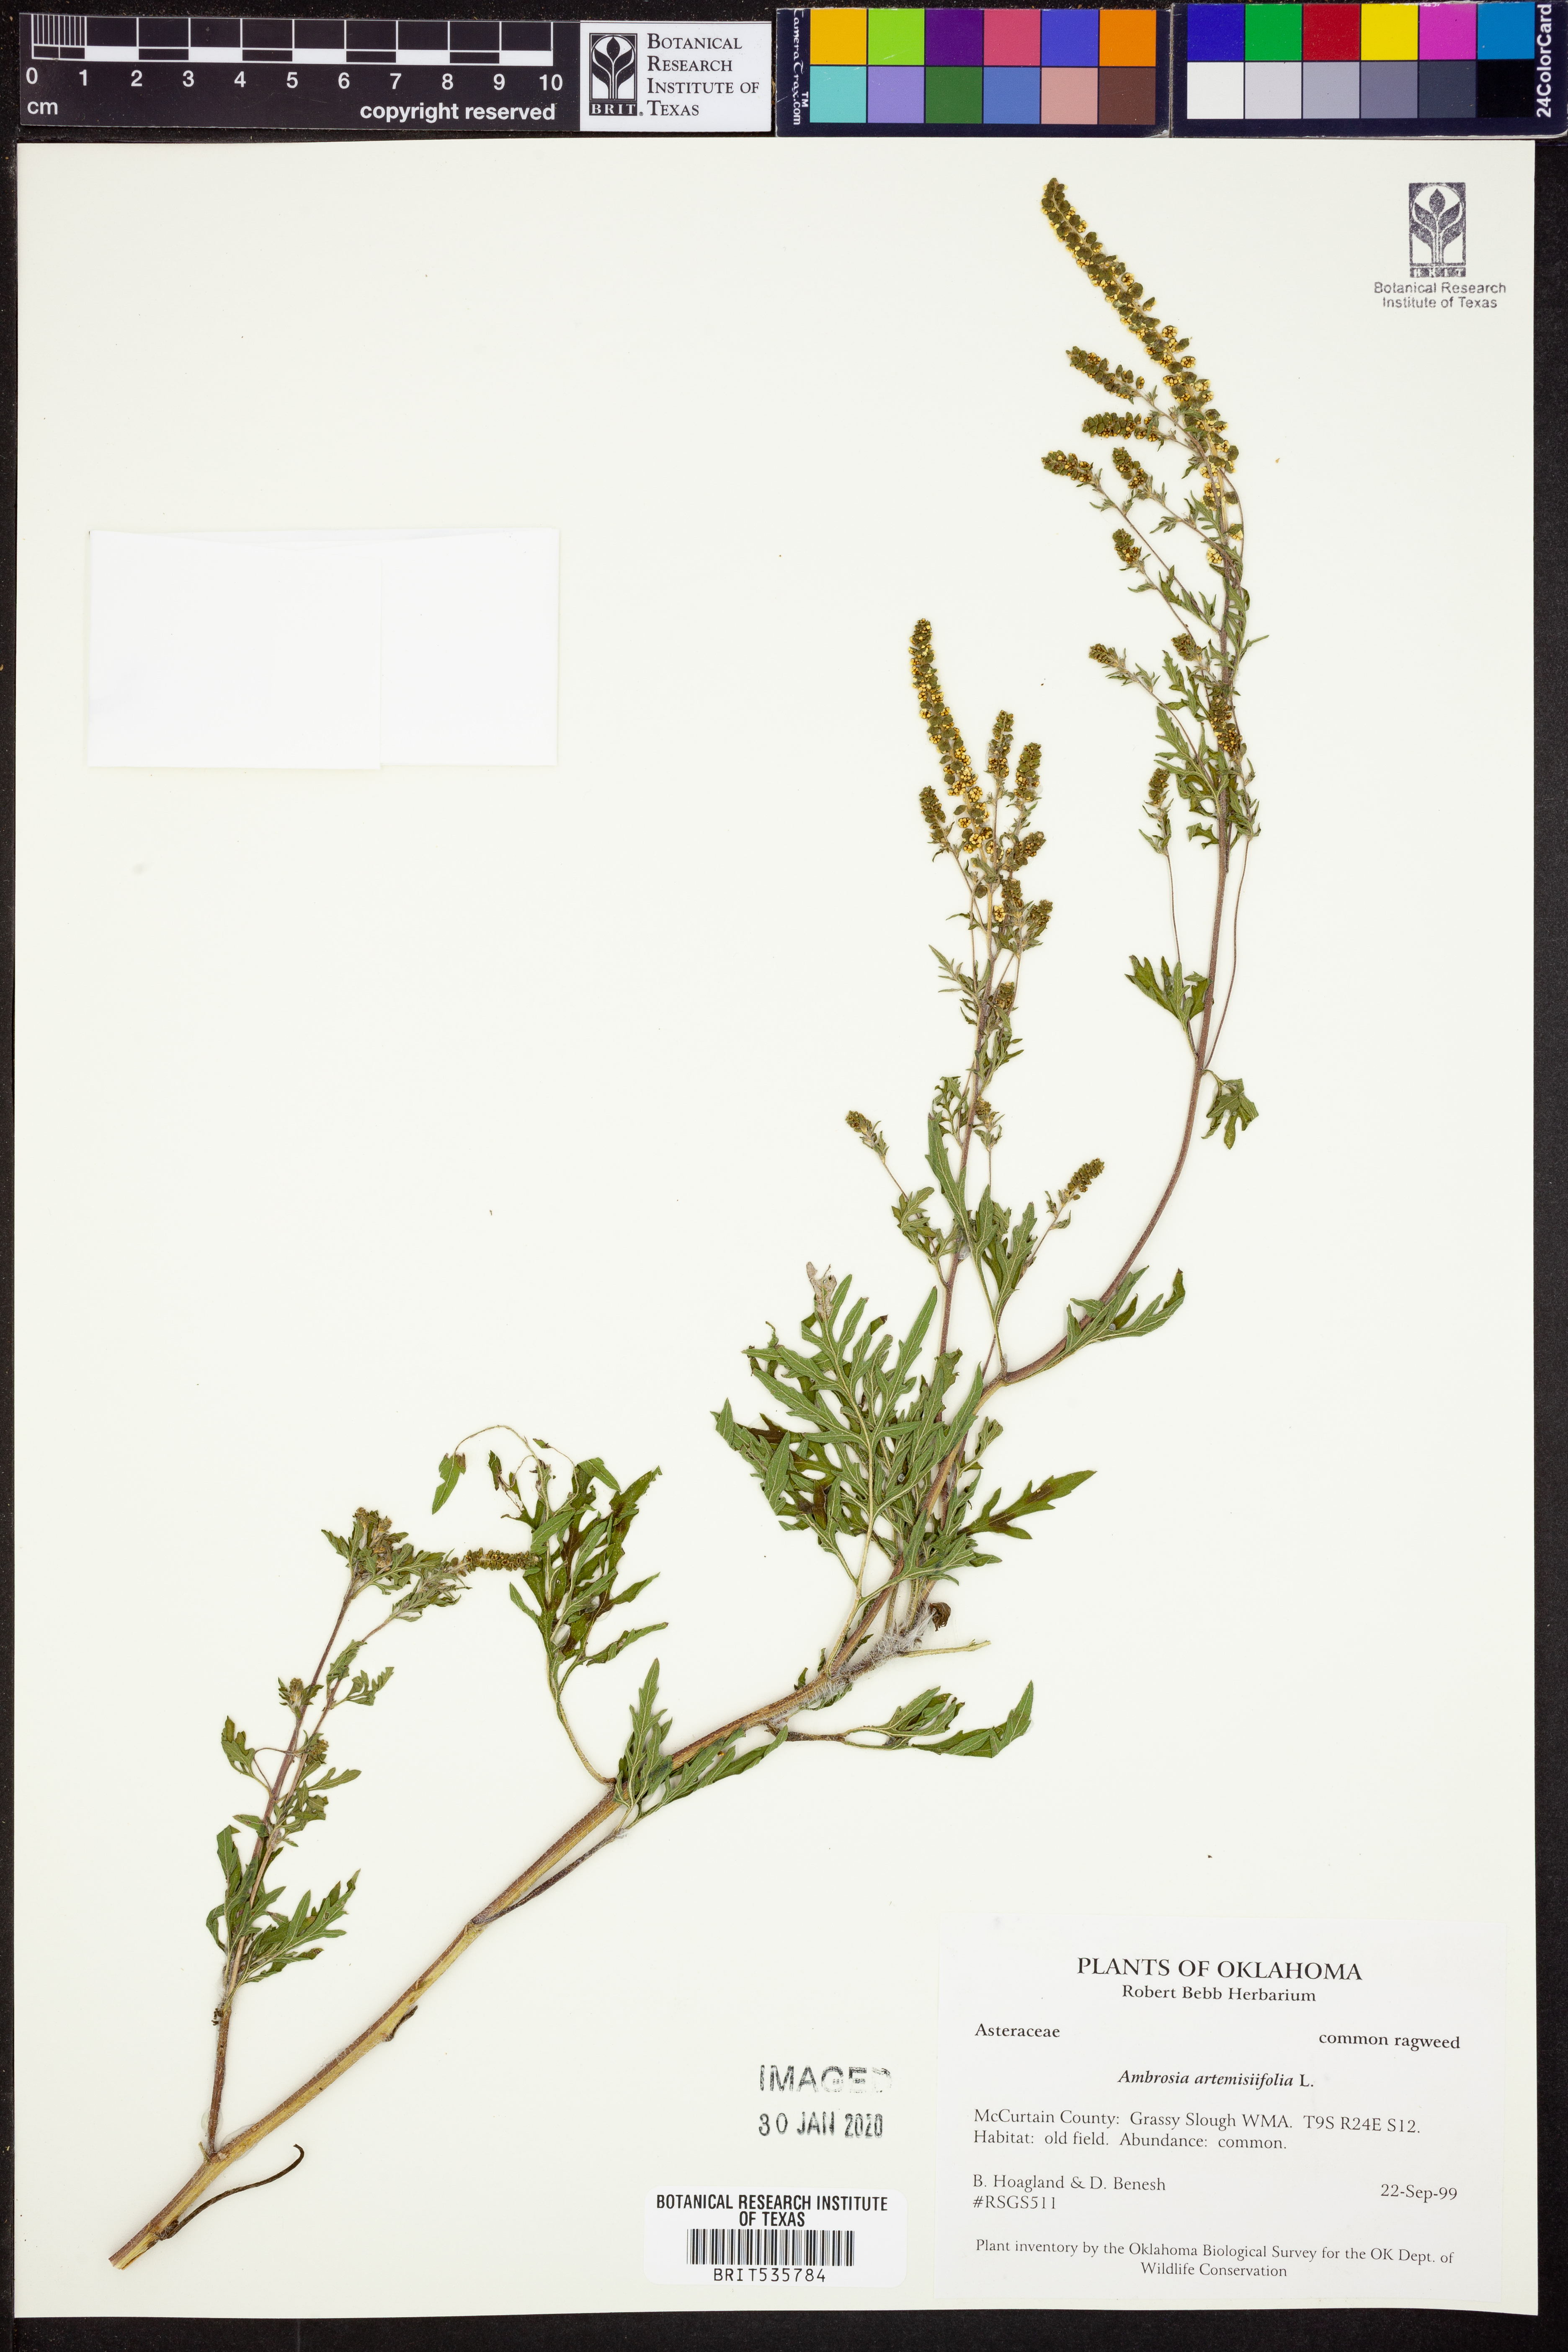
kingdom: Plantae
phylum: Tracheophyta
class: Magnoliopsida
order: Asterales
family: Asteraceae
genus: Ambrosia
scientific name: Ambrosia artemisiifolia
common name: Annual ragweed
